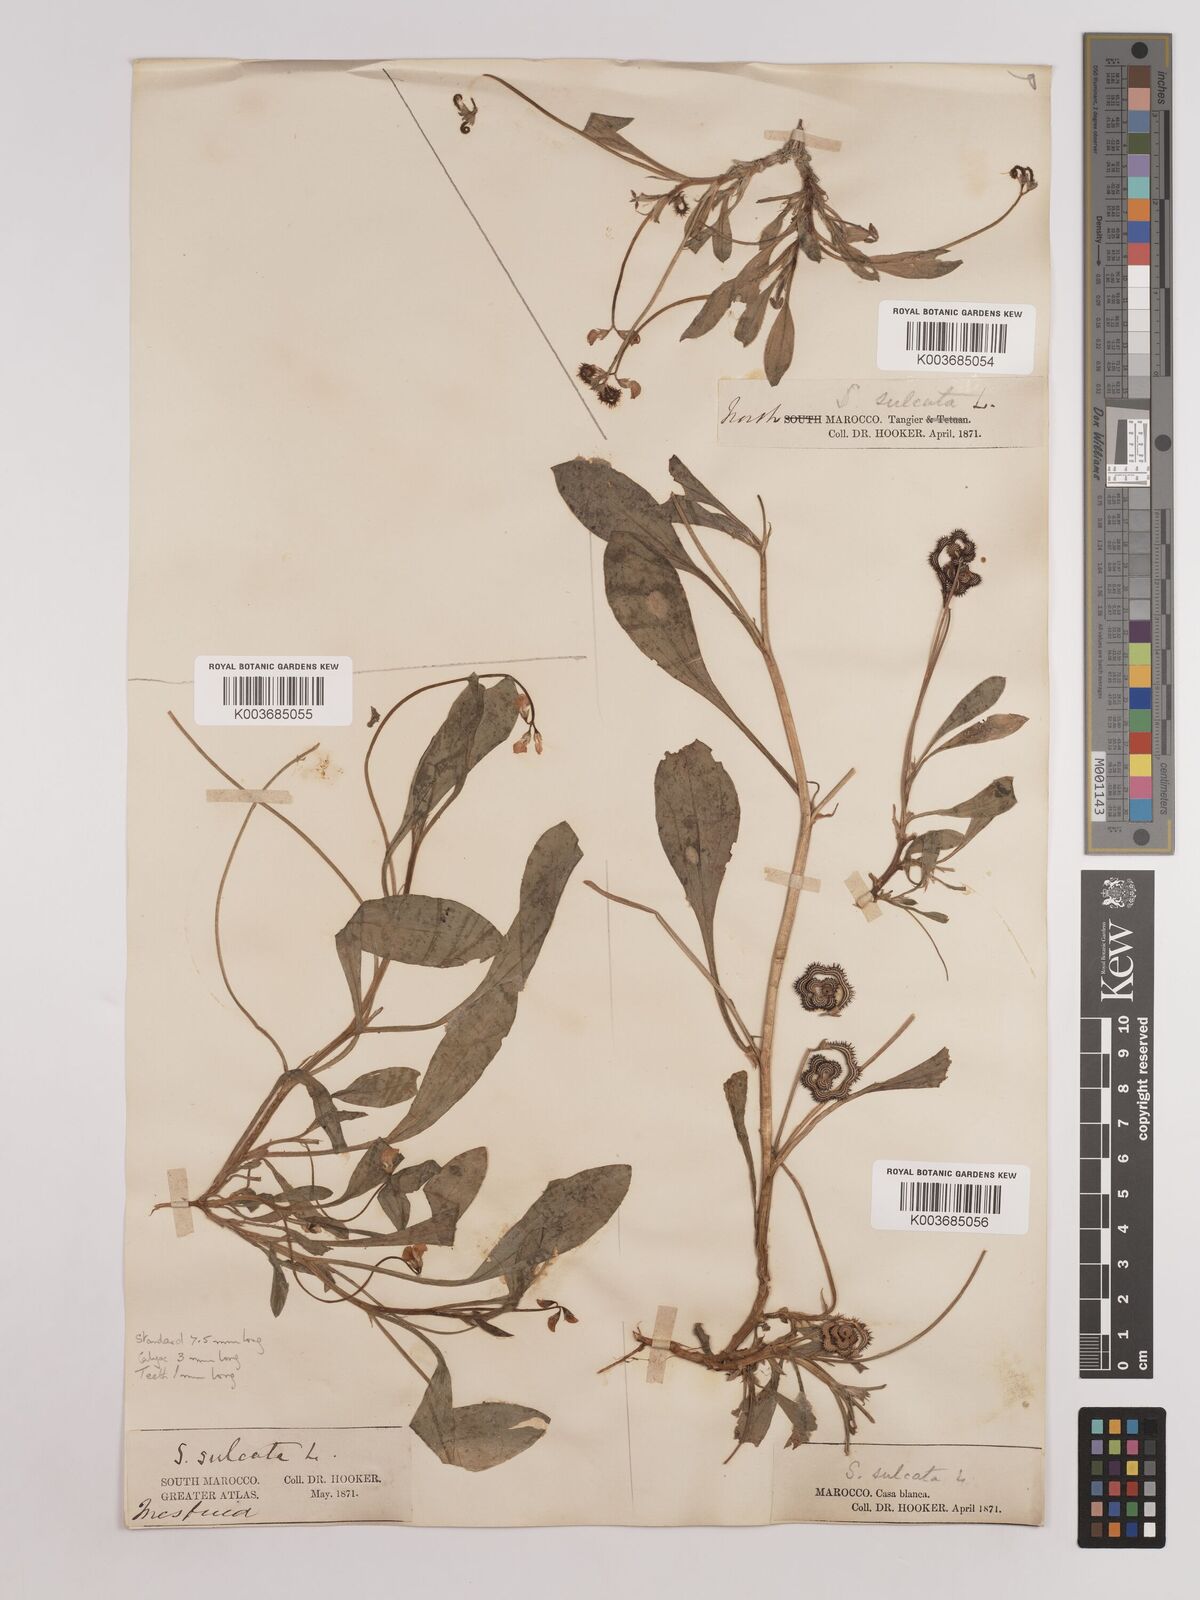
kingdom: Plantae
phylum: Tracheophyta
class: Magnoliopsida
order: Fabales
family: Fabaceae
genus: Scorpiurus
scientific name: Scorpiurus muricatus
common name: Caterpillar-plant
